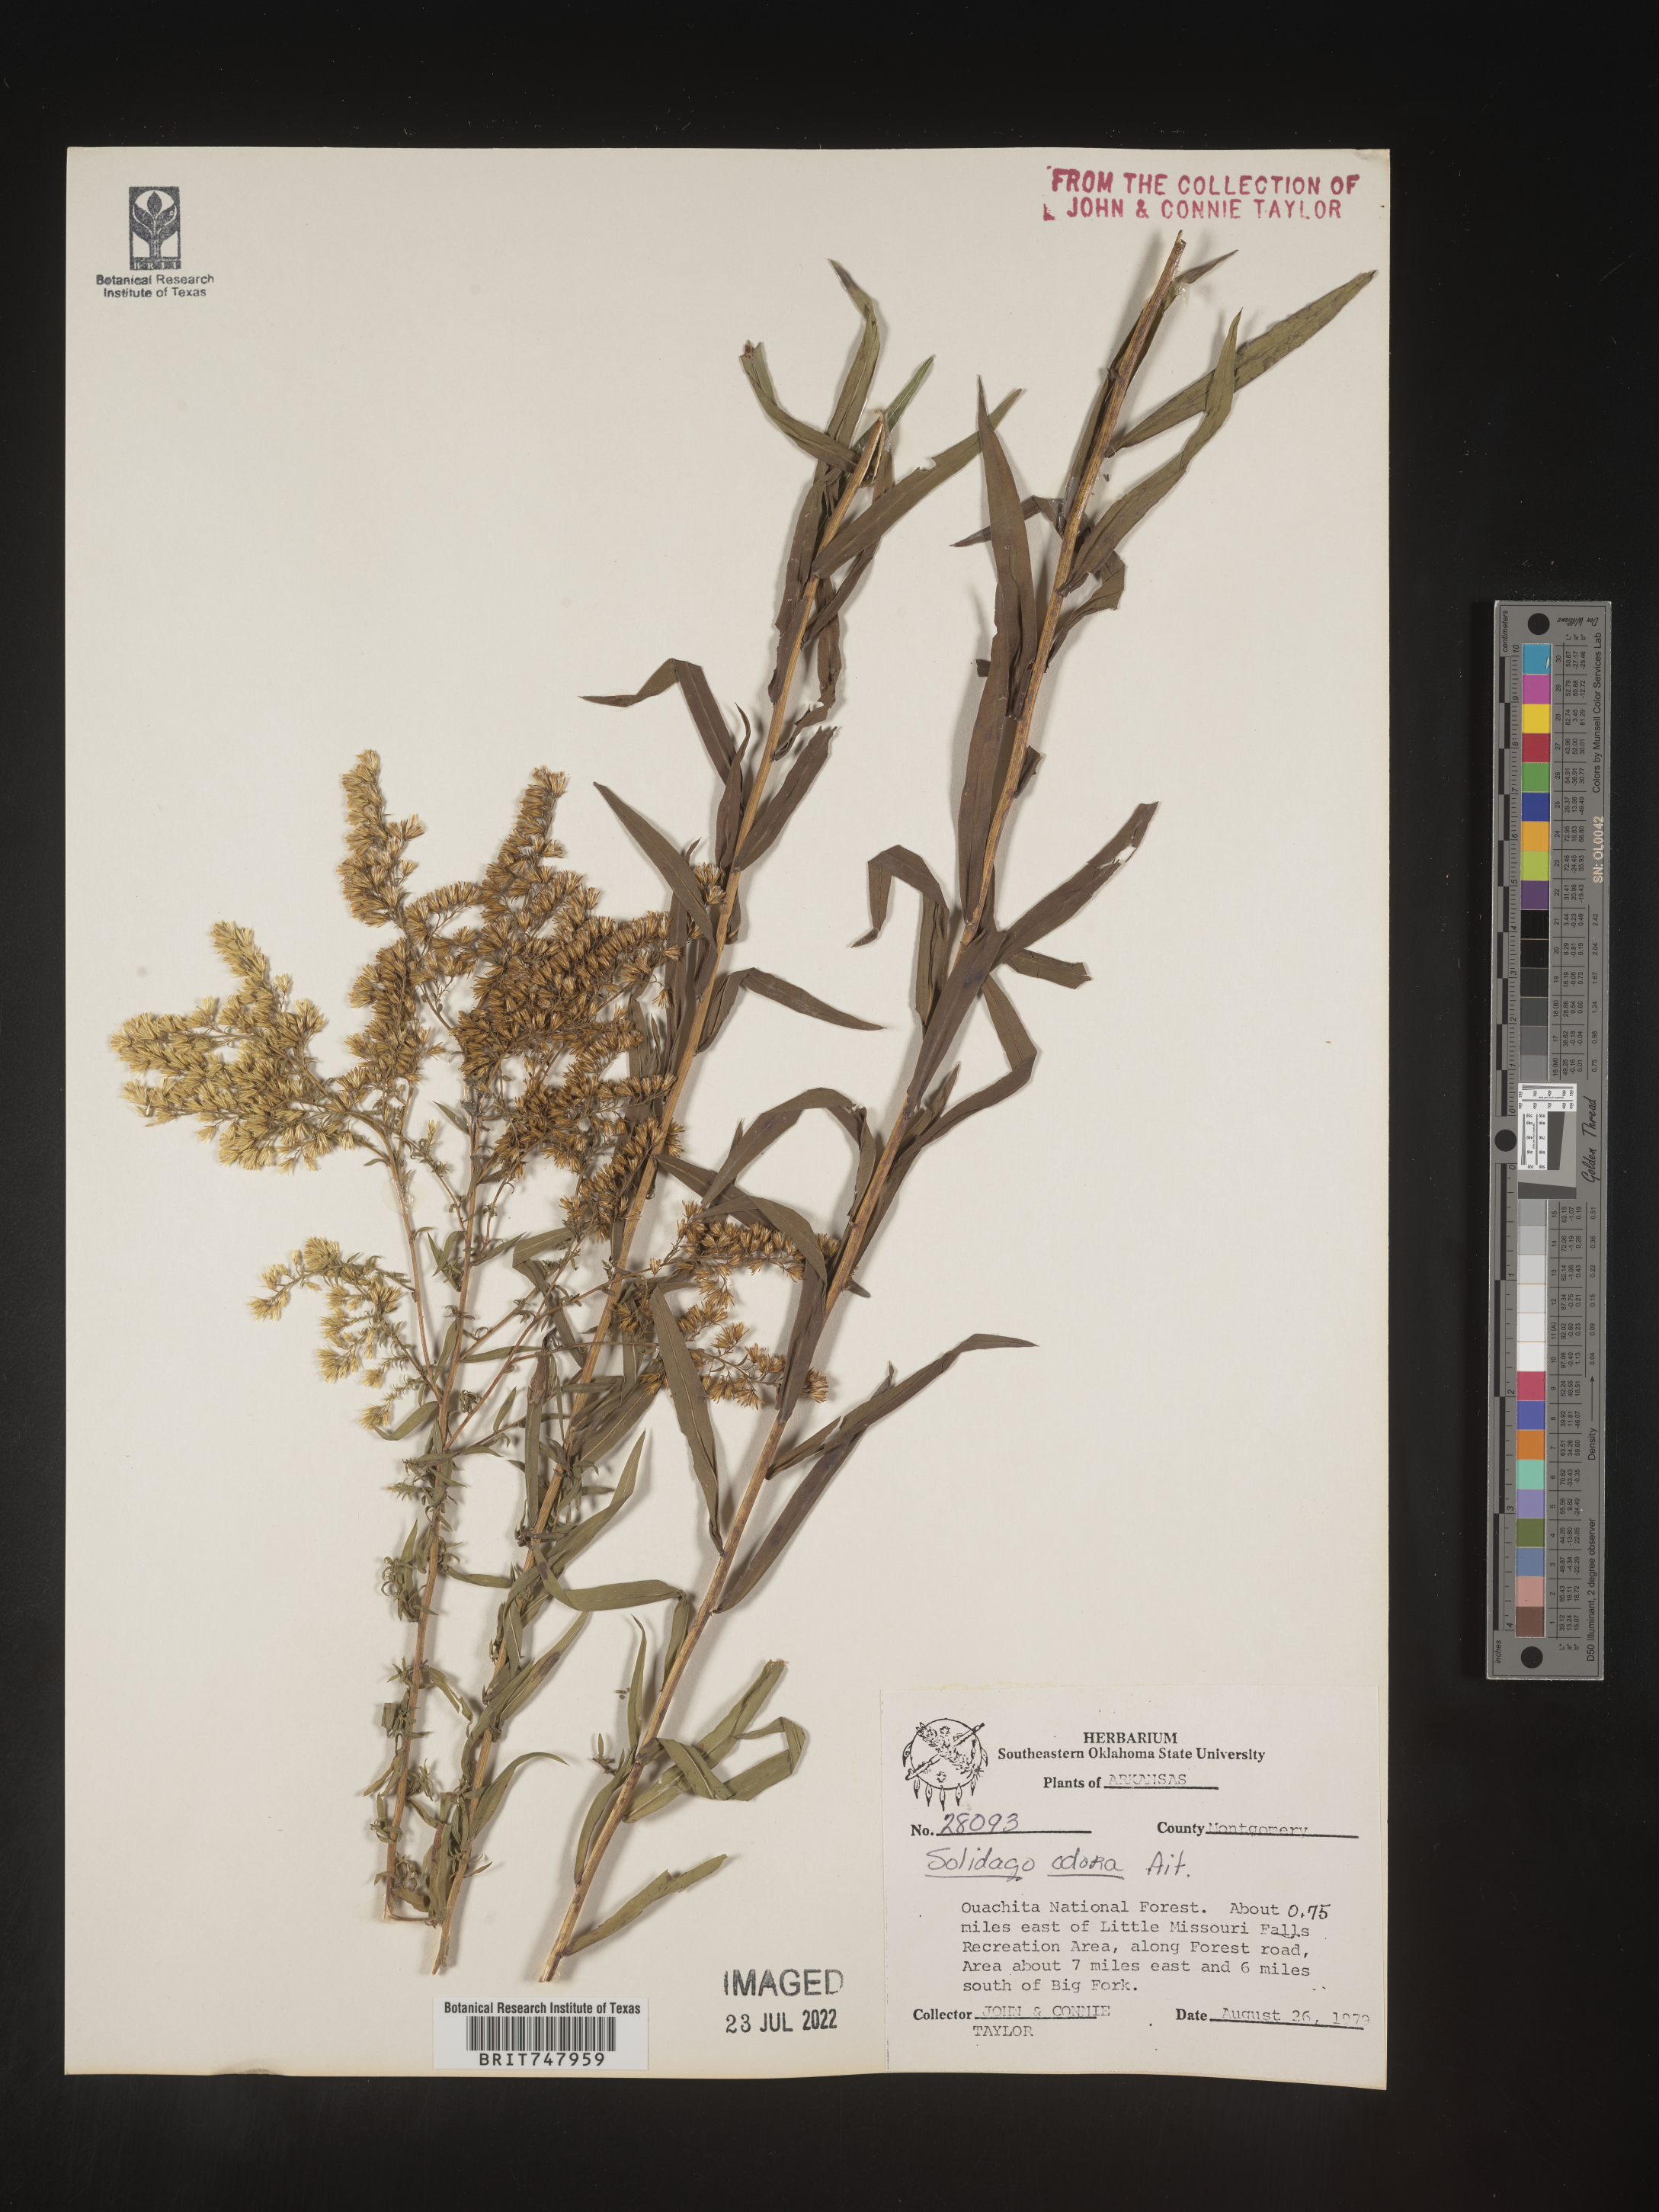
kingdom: Plantae
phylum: Tracheophyta
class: Magnoliopsida
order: Asterales
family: Asteraceae
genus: Solidago
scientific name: Solidago odora
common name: Anise-scented goldenrod
